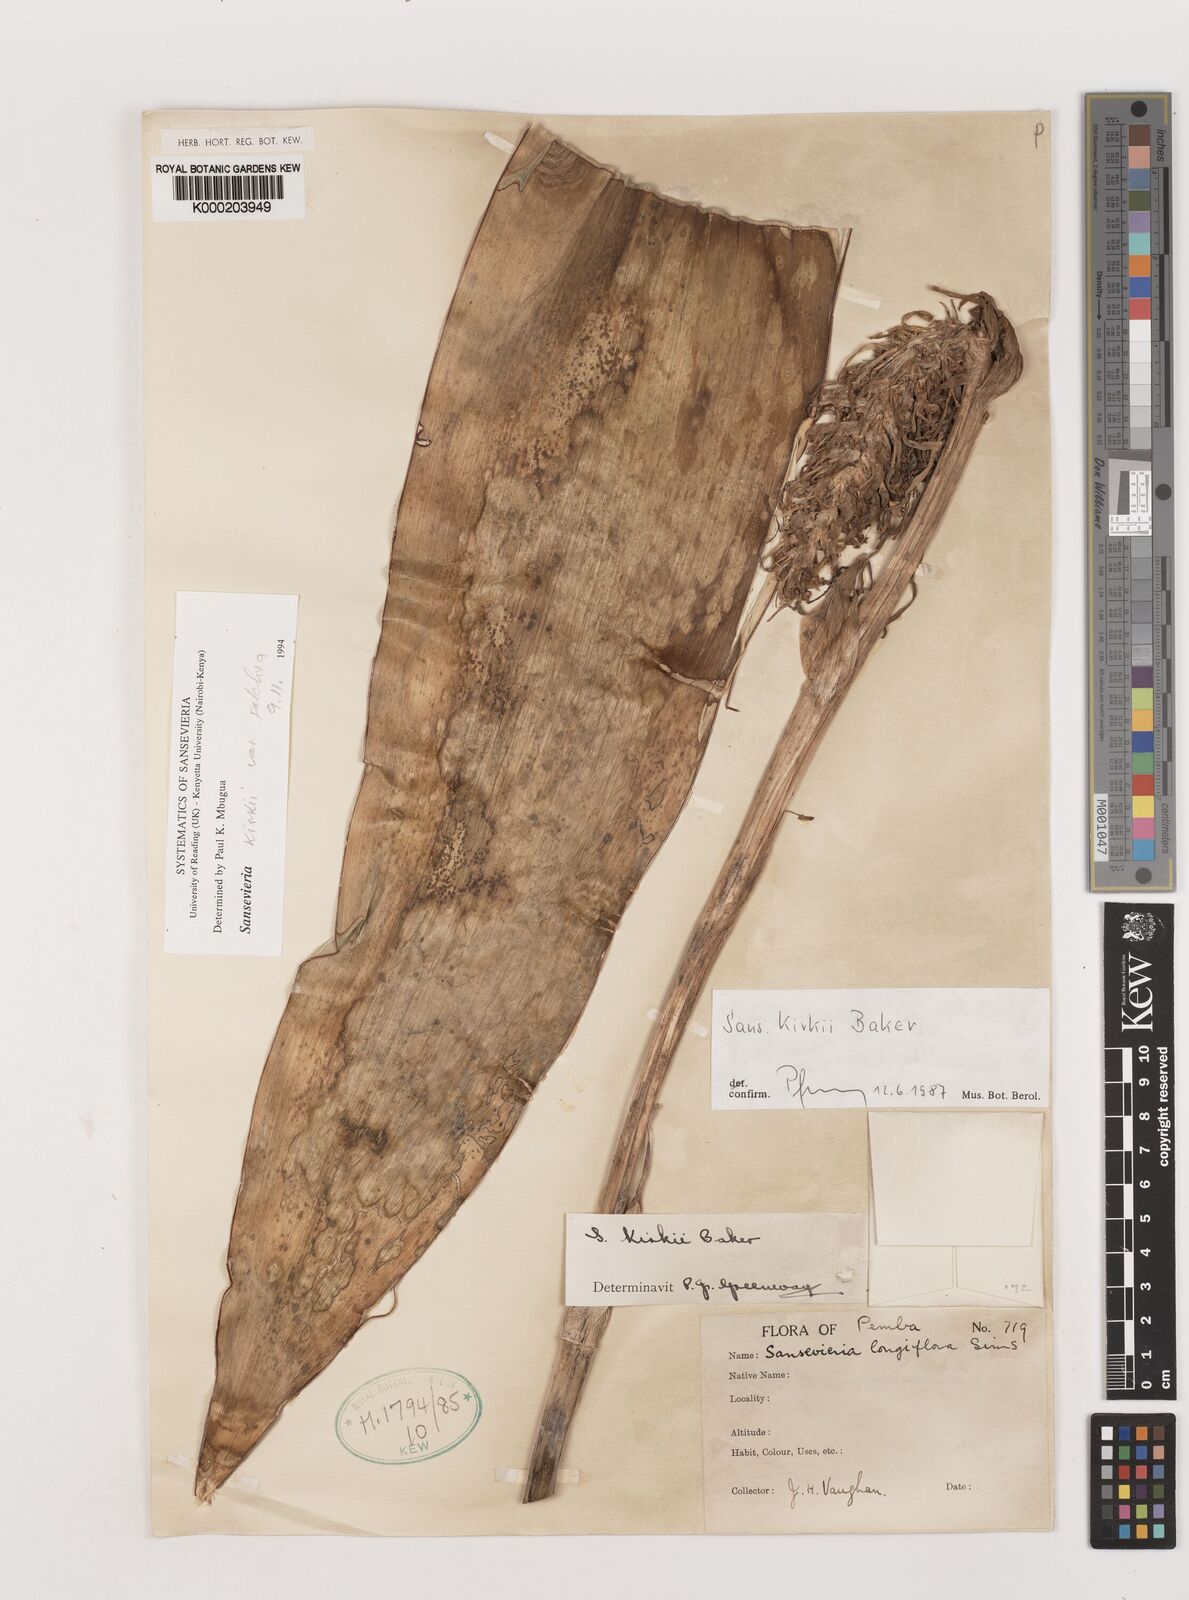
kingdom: Plantae
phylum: Tracheophyta
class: Liliopsida
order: Asparagales
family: Asparagaceae
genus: Dracaena
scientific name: Dracaena pethera
